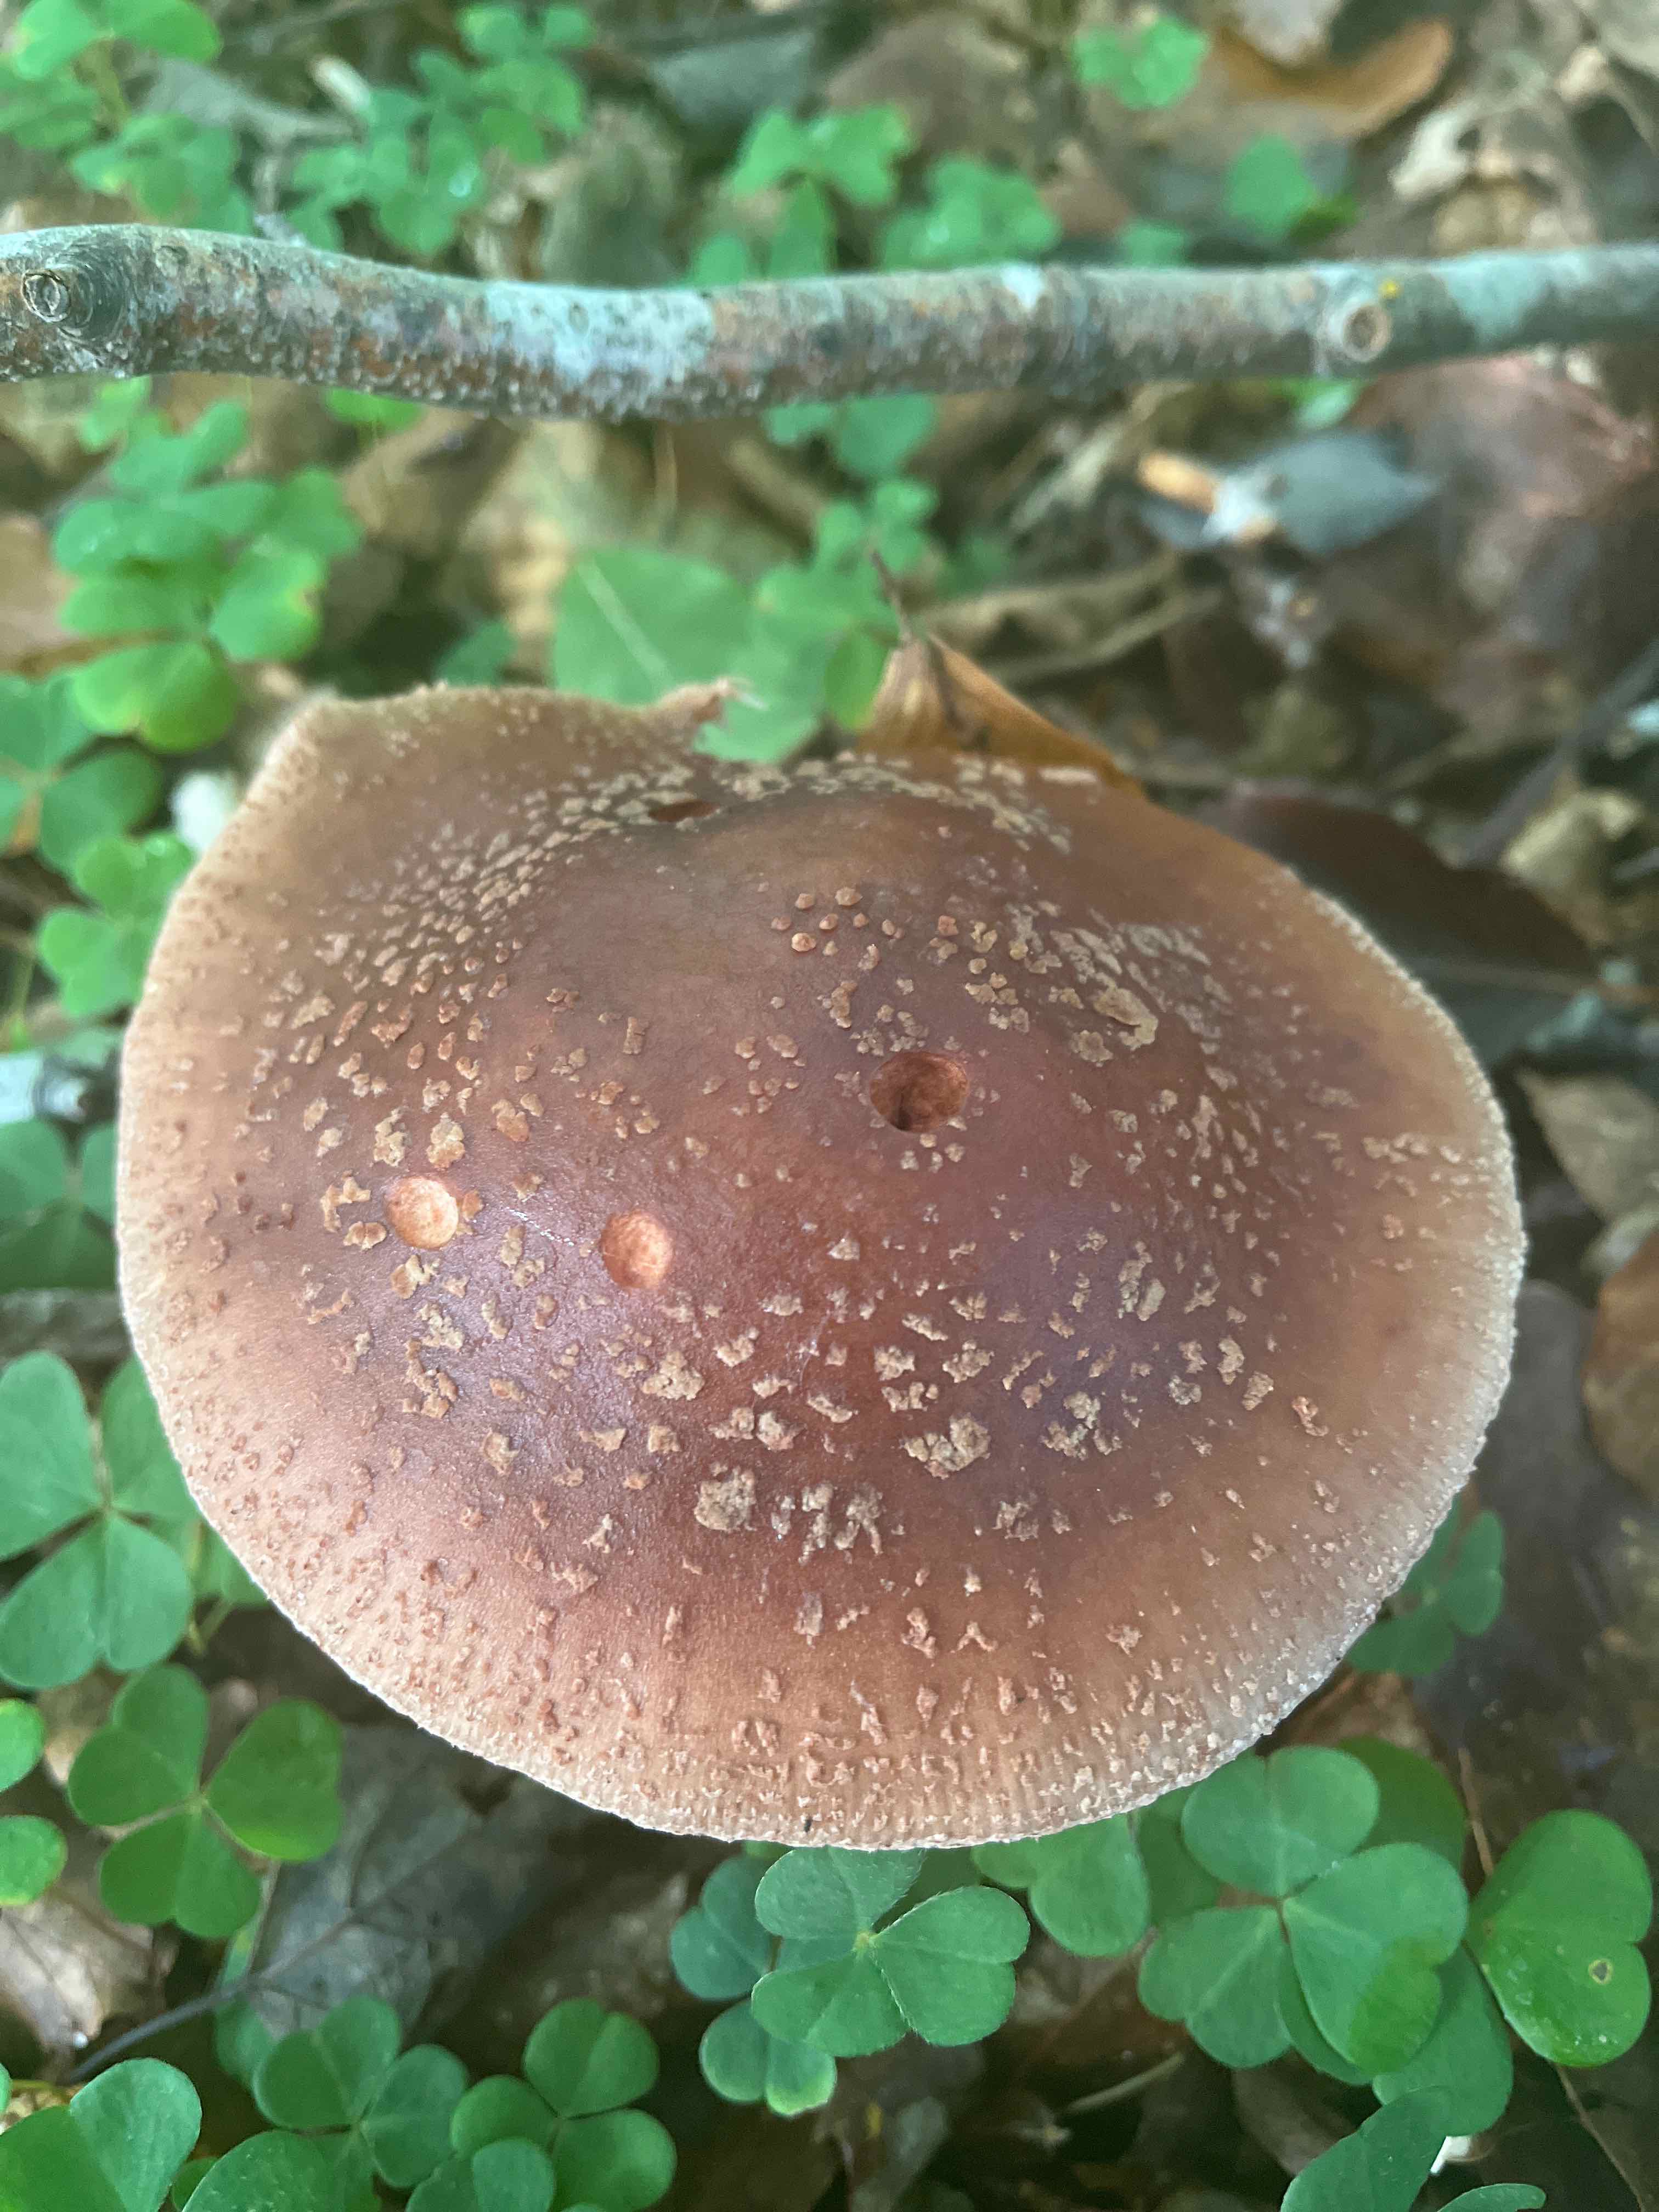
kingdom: Fungi
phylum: Basidiomycota
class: Agaricomycetes
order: Agaricales
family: Amanitaceae
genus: Amanita
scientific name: Amanita rubescens
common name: rødmende fluesvamp
